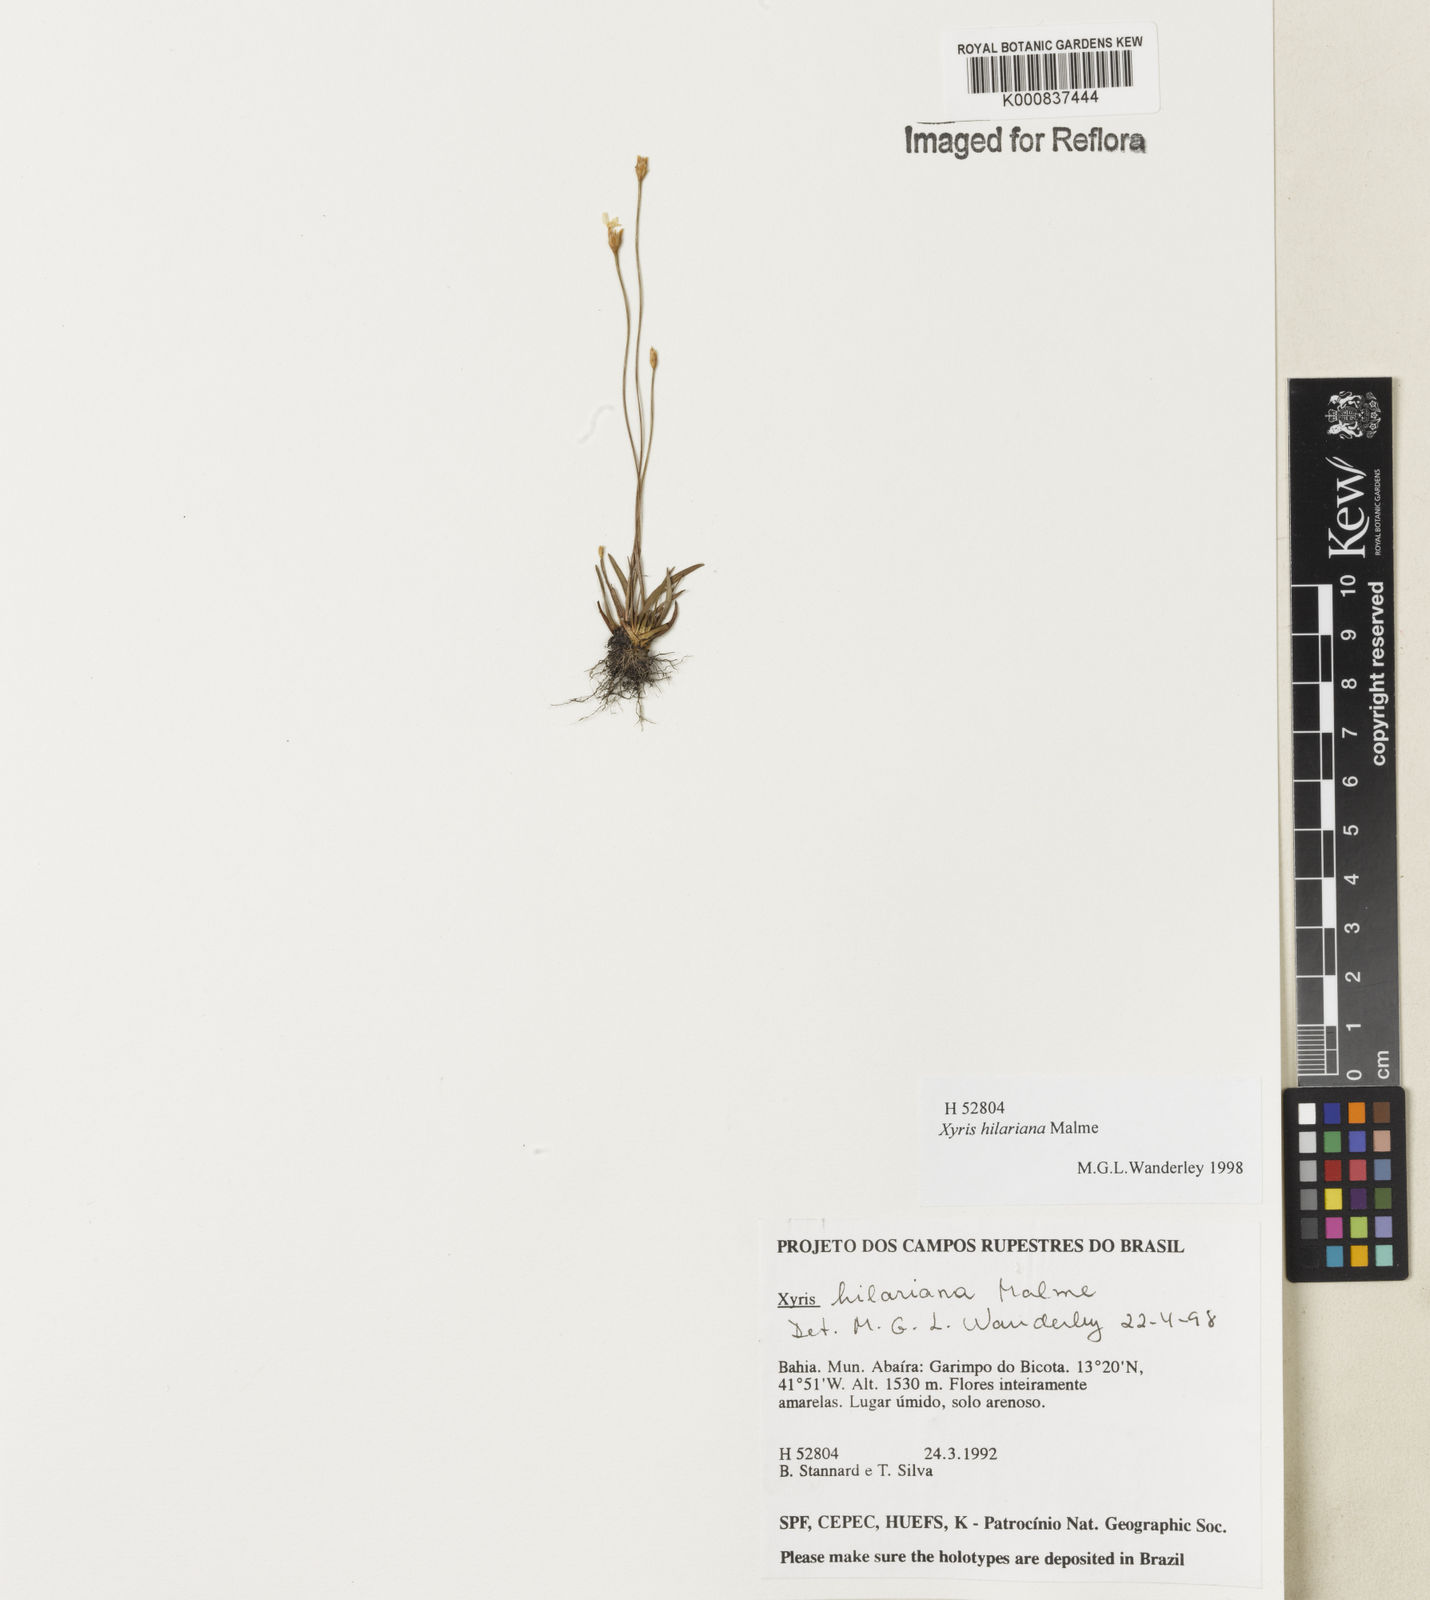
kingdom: Plantae
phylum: Tracheophyta
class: Liliopsida
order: Poales
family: Xyridaceae
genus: Xyris
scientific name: Xyris hilariana
